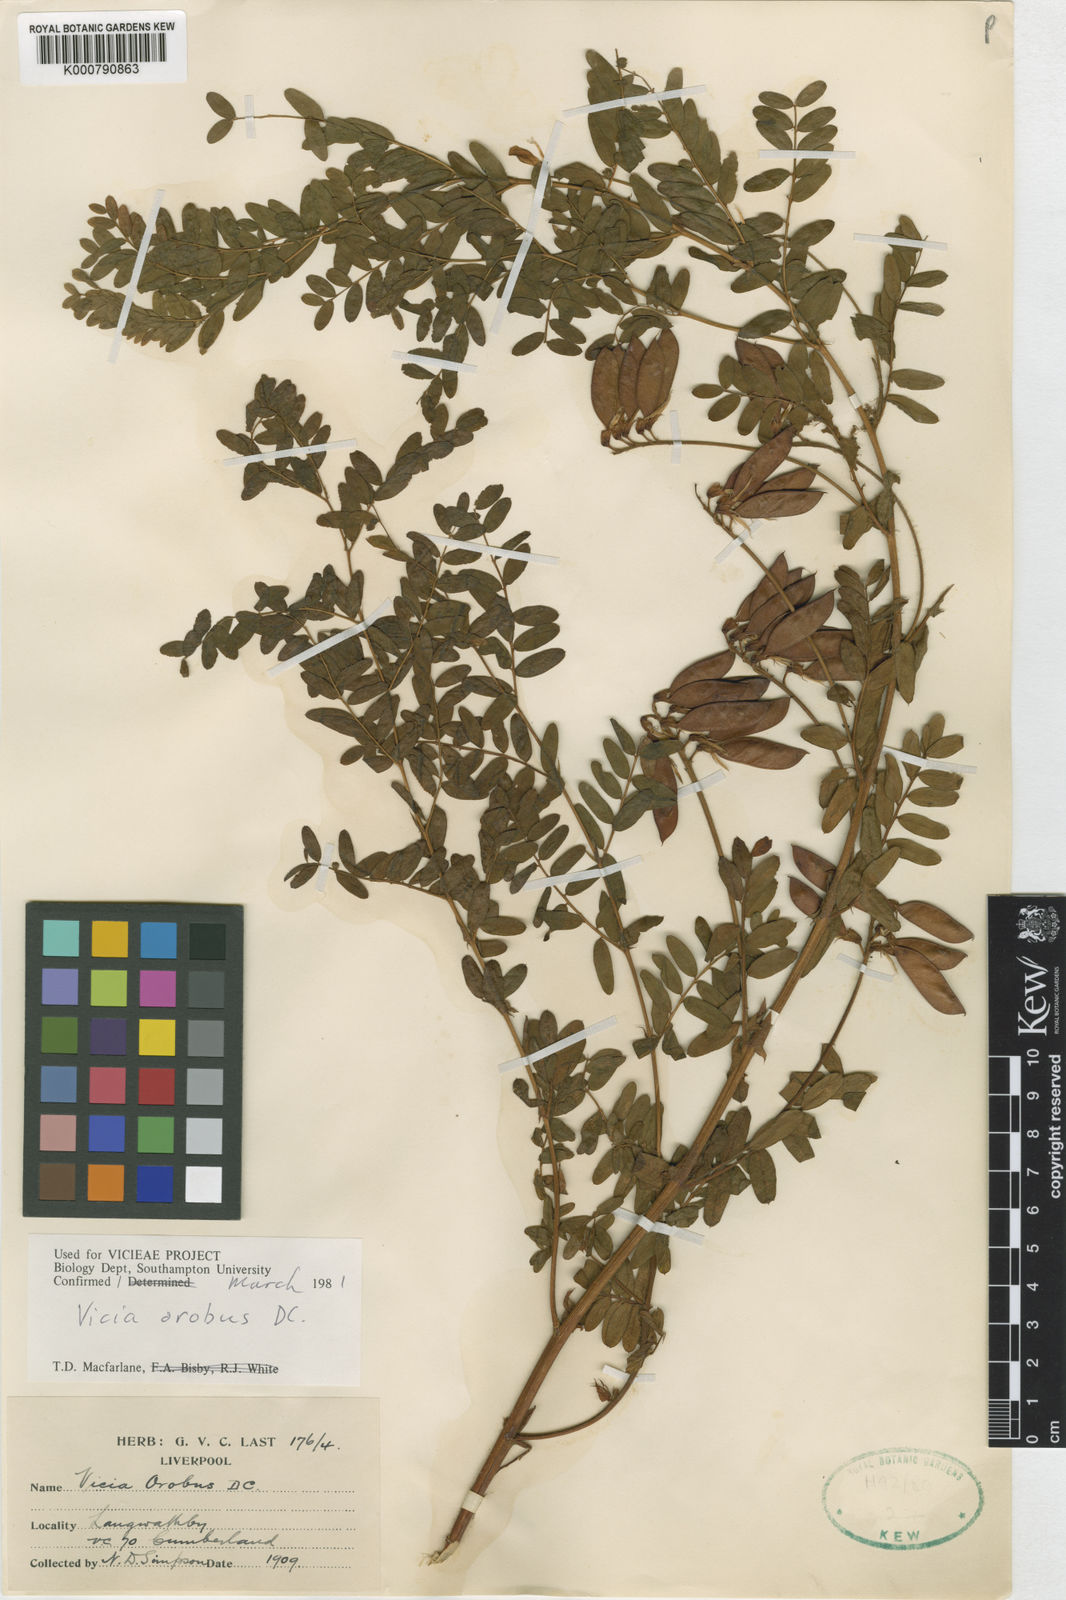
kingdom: Plantae
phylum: Tracheophyta
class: Magnoliopsida
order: Fabales
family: Fabaceae
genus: Vicia
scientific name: Vicia orobus
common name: Wood bitter-vetch
